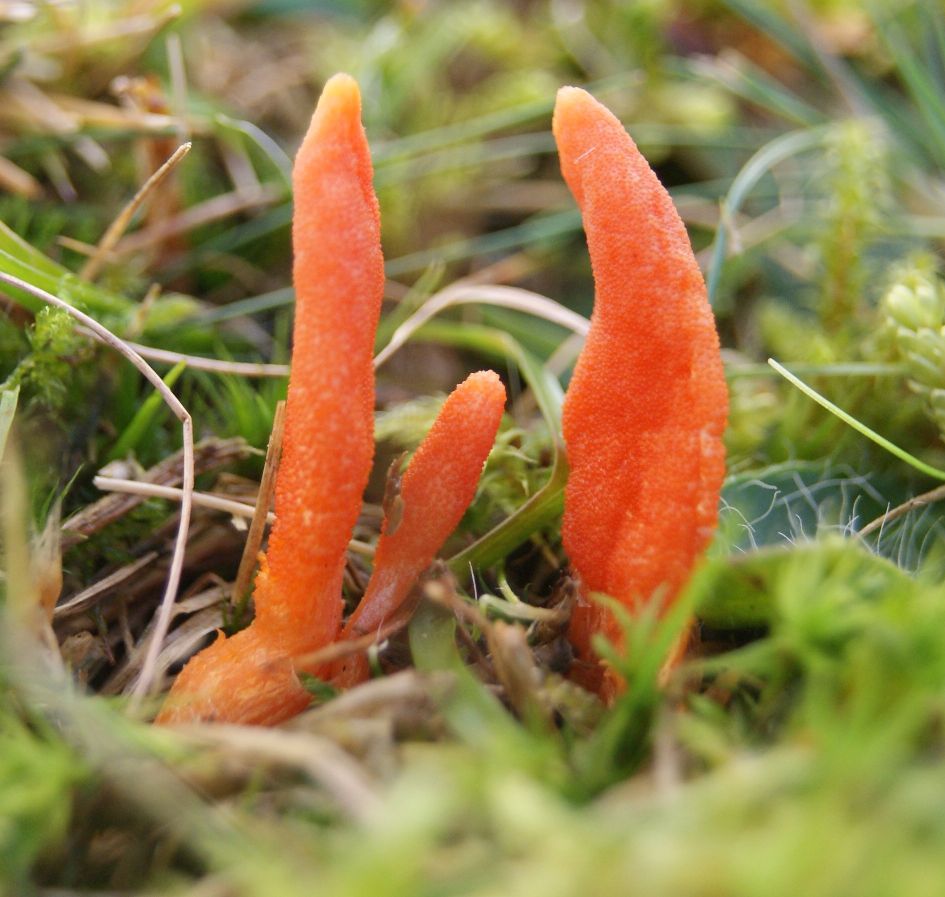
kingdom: Fungi
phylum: Ascomycota
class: Sordariomycetes
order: Hypocreales
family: Cordycipitaceae
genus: Cordyceps
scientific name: Cordyceps militaris
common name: puppe-snyltekølle
